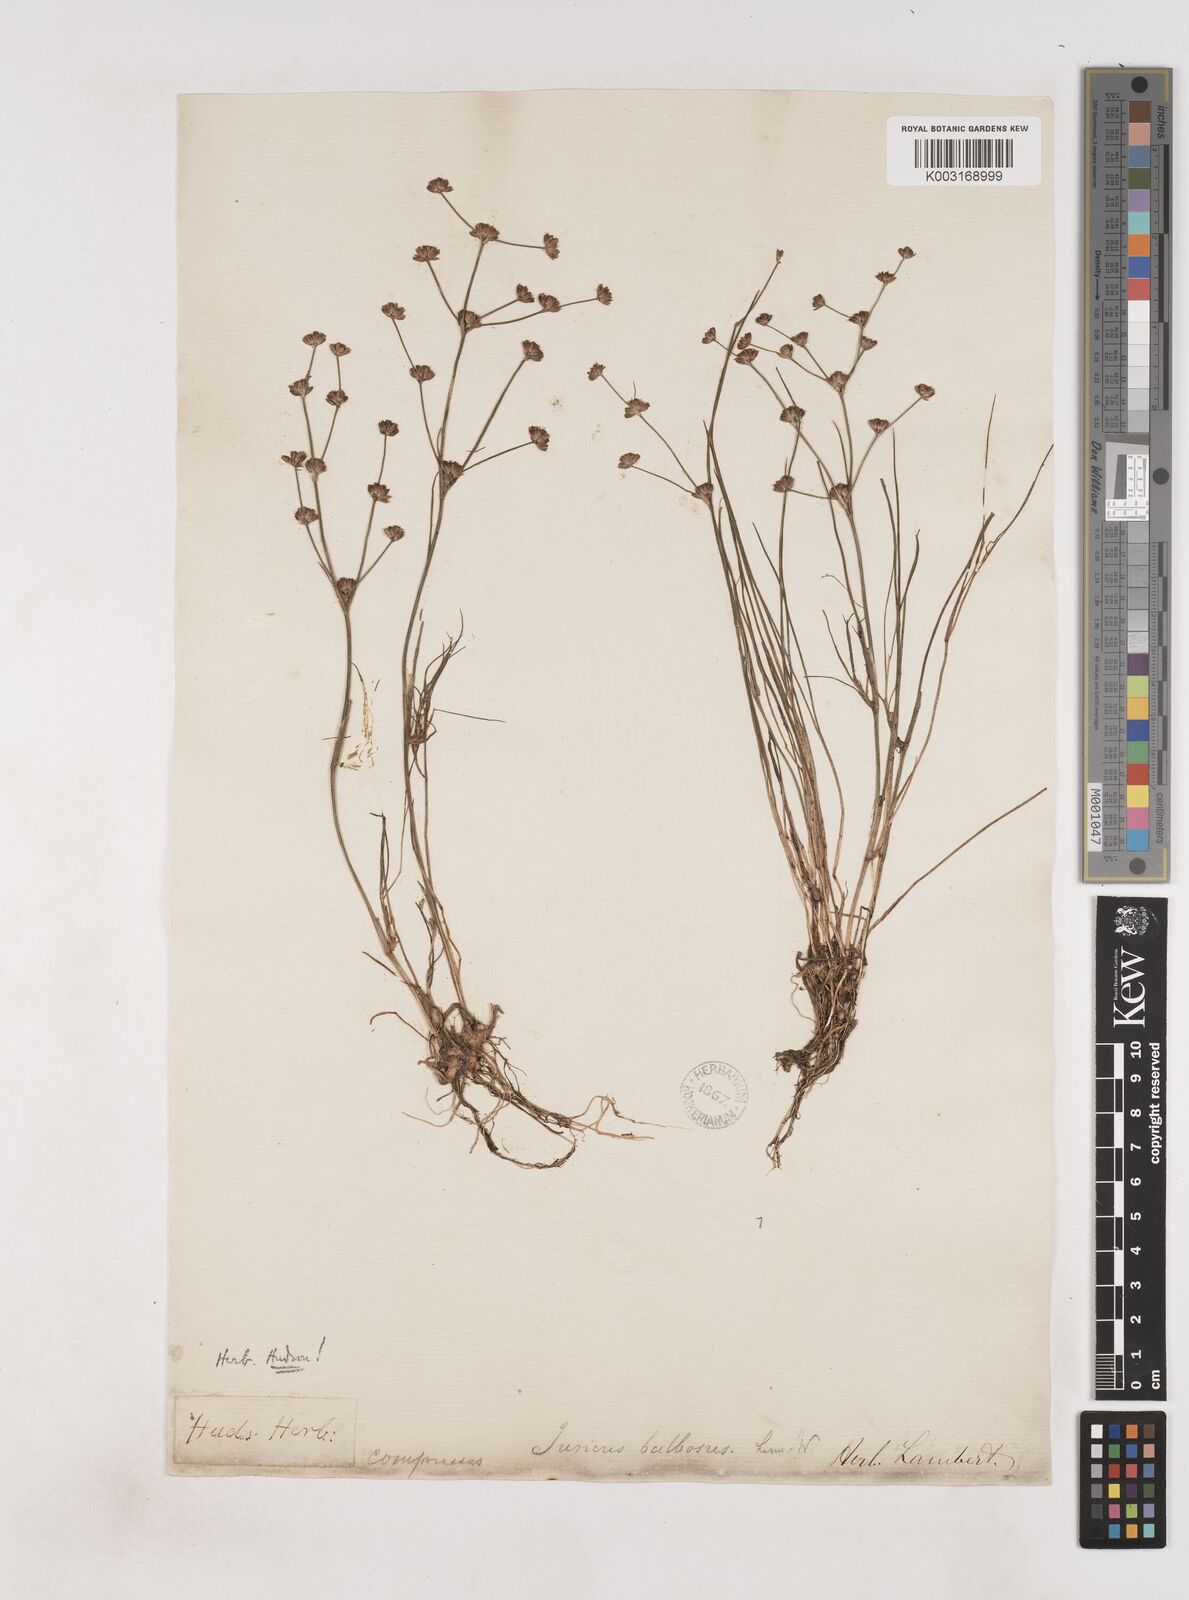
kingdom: Plantae
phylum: Tracheophyta
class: Liliopsida
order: Poales
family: Juncaceae
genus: Juncus
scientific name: Juncus bulbosus
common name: Bulbous rush
